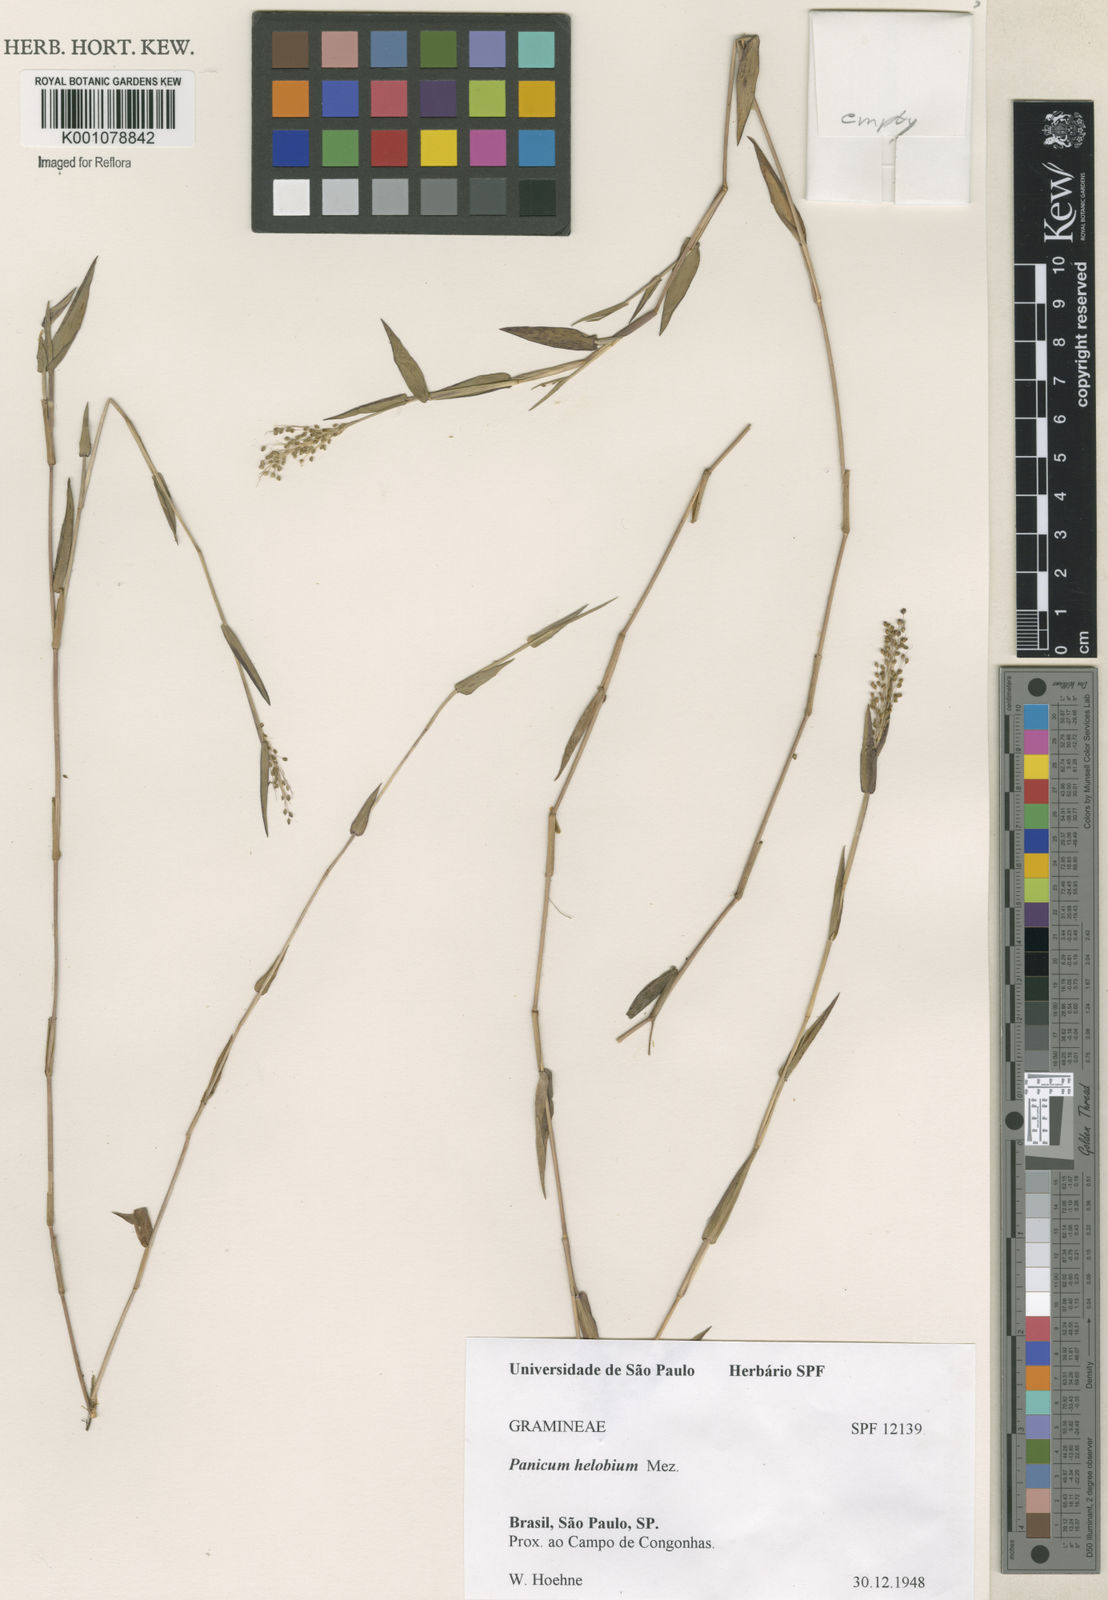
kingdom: Plantae
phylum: Tracheophyta
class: Liliopsida
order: Poales
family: Poaceae
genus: Trichanthecium
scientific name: Trichanthecium schwackeanum
